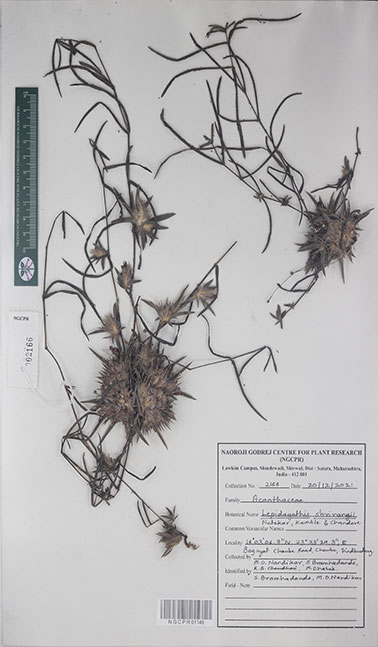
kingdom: Plantae
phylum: Tracheophyta
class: Magnoliopsida
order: Lamiales
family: Acanthaceae
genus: Lepidagathis
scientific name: Lepidagathis shrirangii
